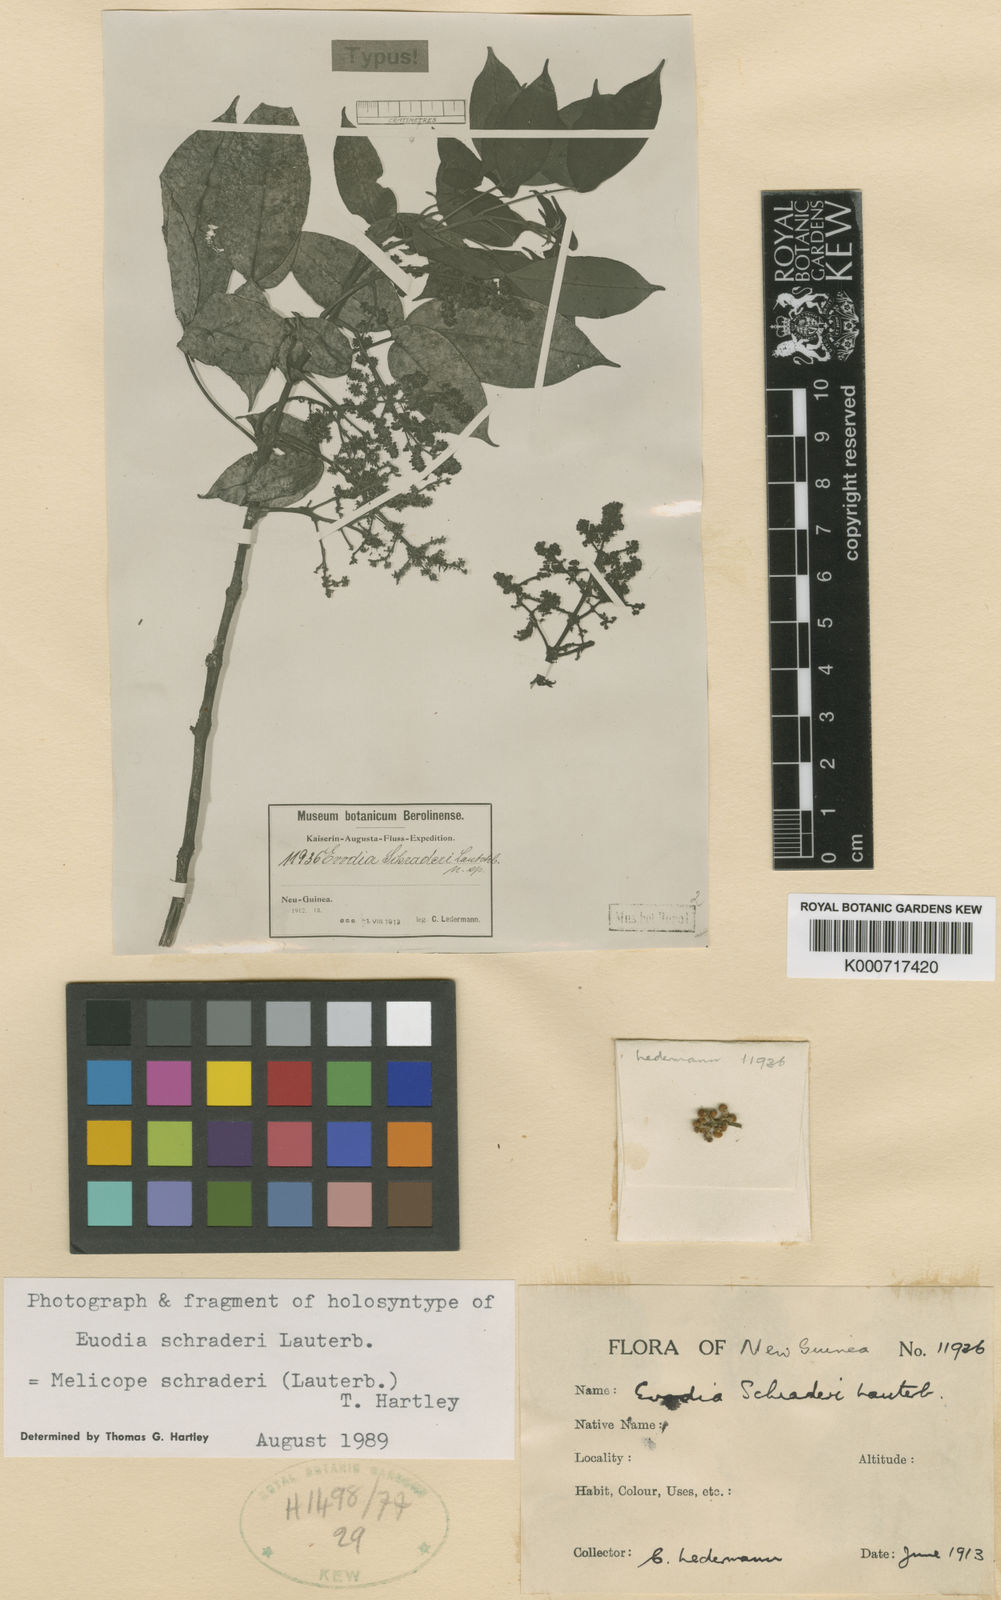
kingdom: Plantae
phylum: Tracheophyta
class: Magnoliopsida
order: Sapindales
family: Rutaceae
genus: Melicope
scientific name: Melicope schraderi
